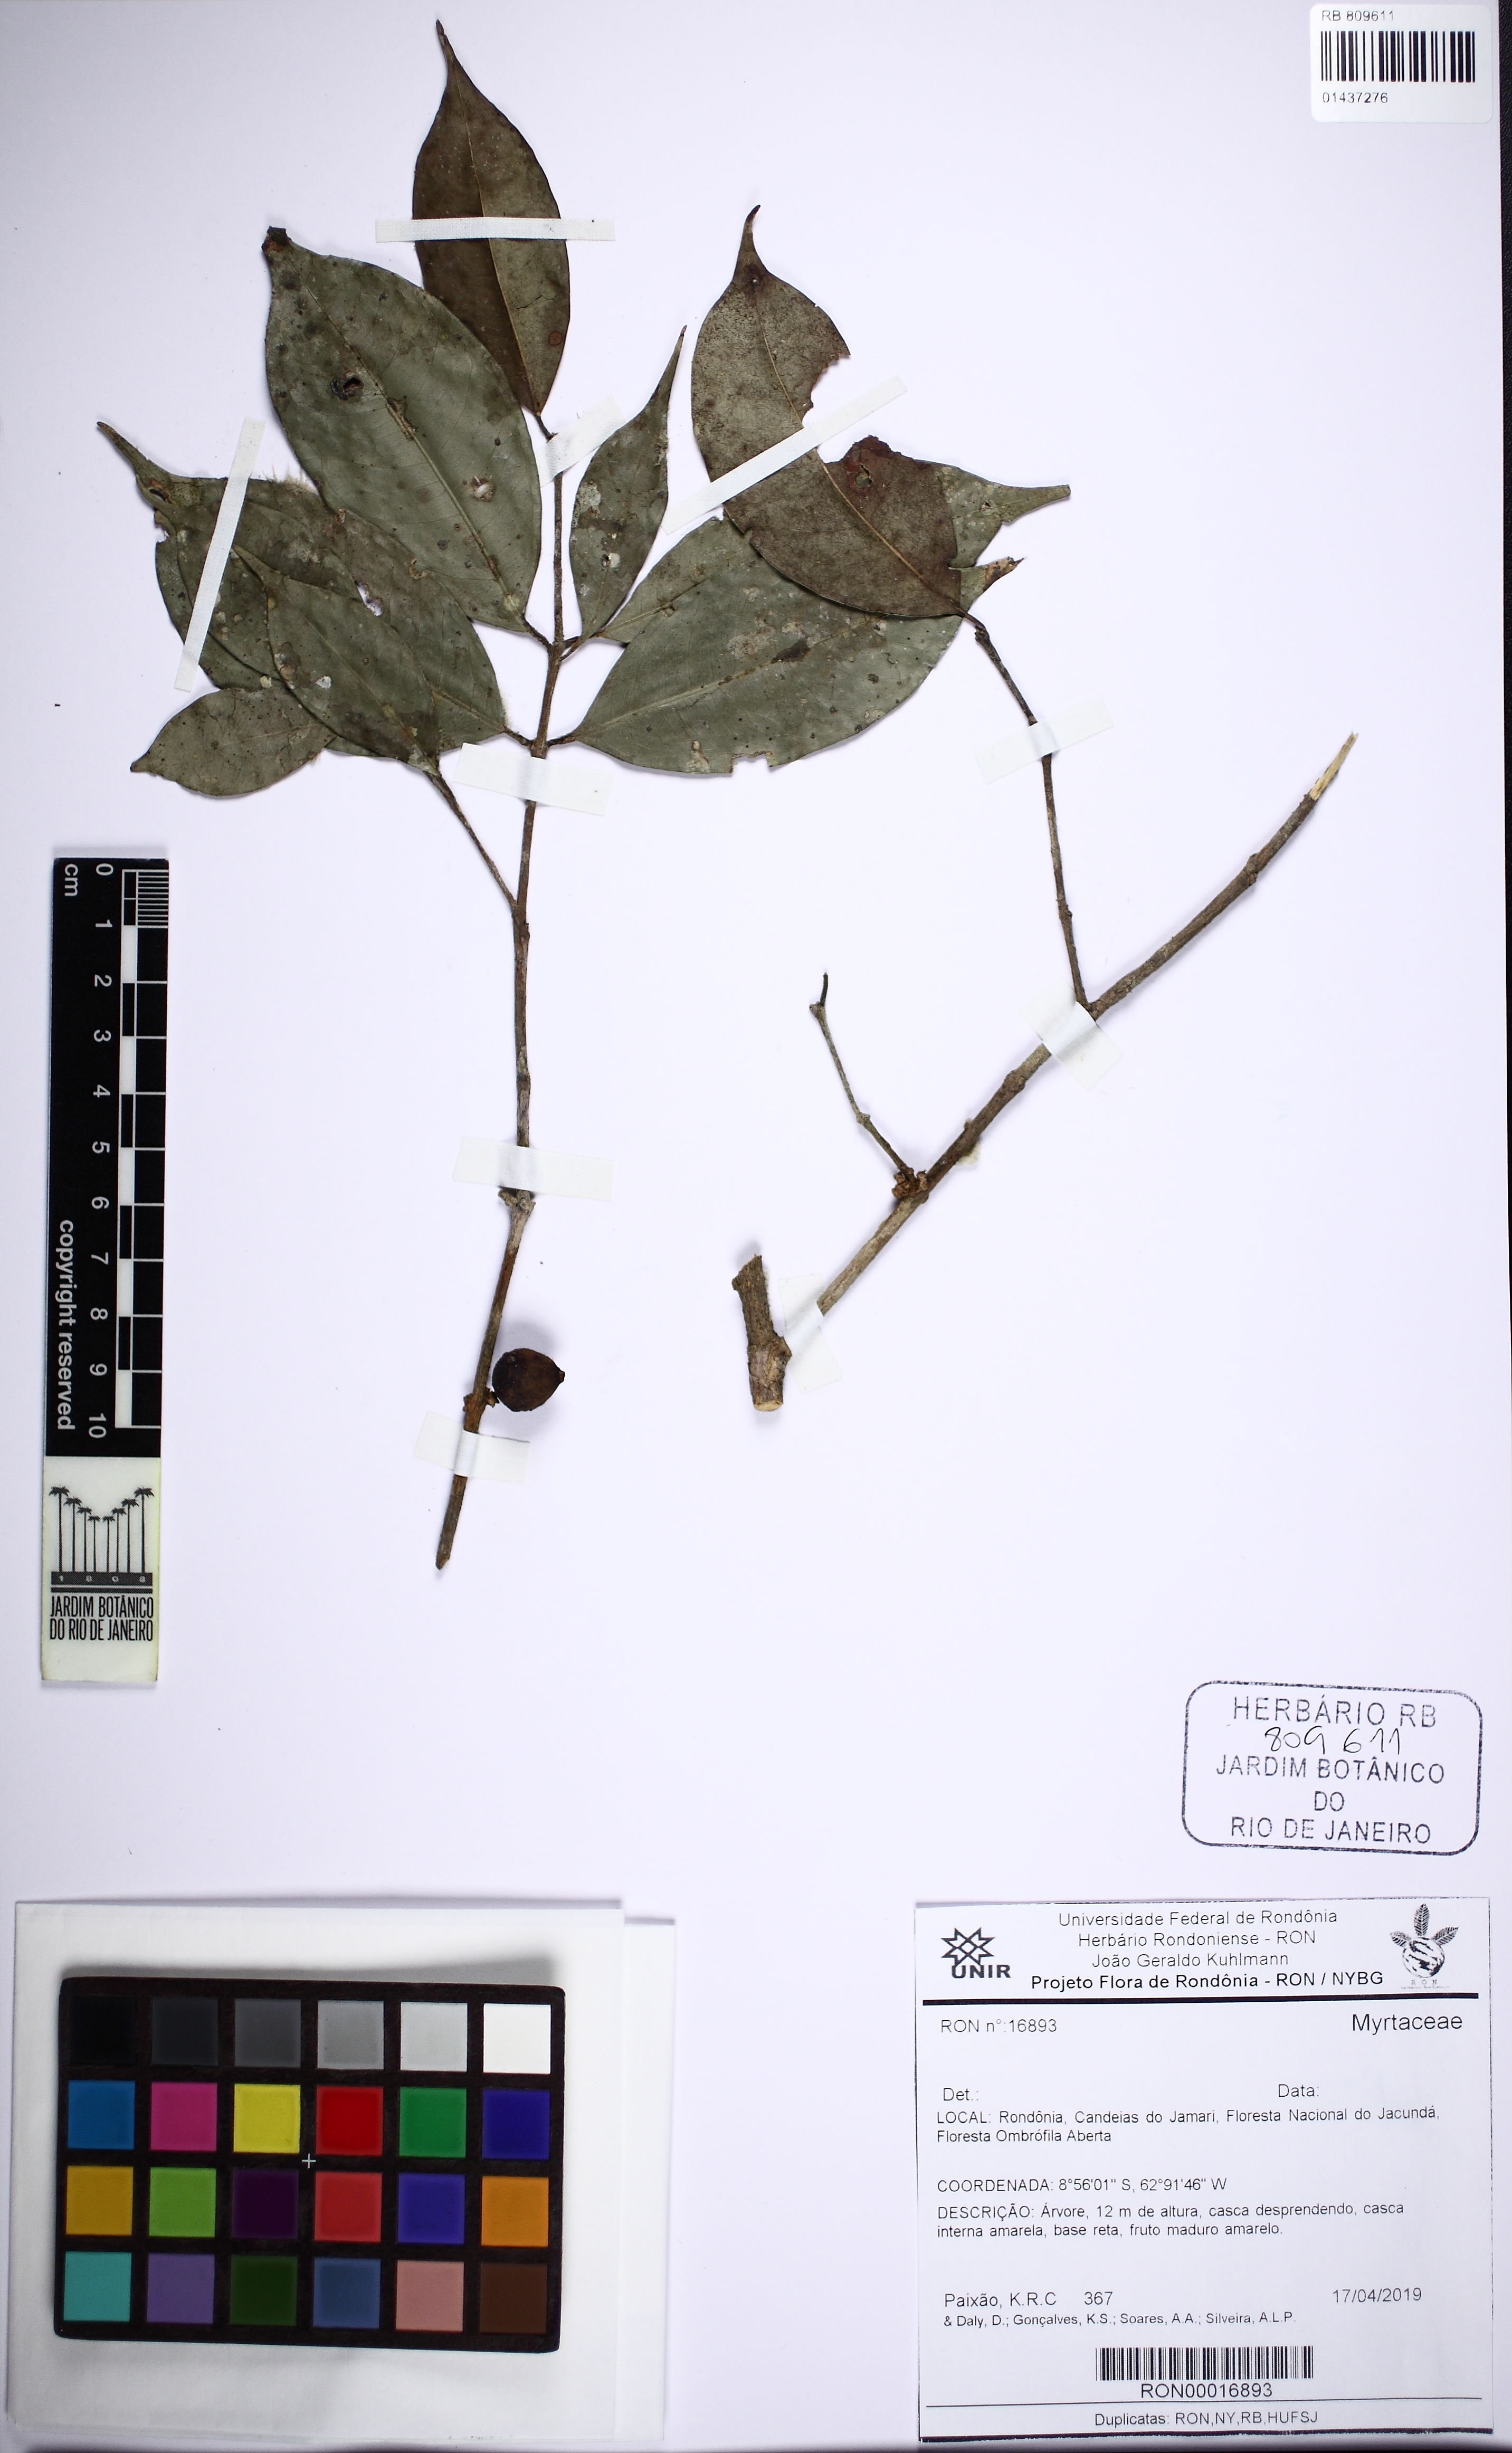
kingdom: Plantae
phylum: Tracheophyta
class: Magnoliopsida
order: Myrtales
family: Myrtaceae
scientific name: Myrtaceae
